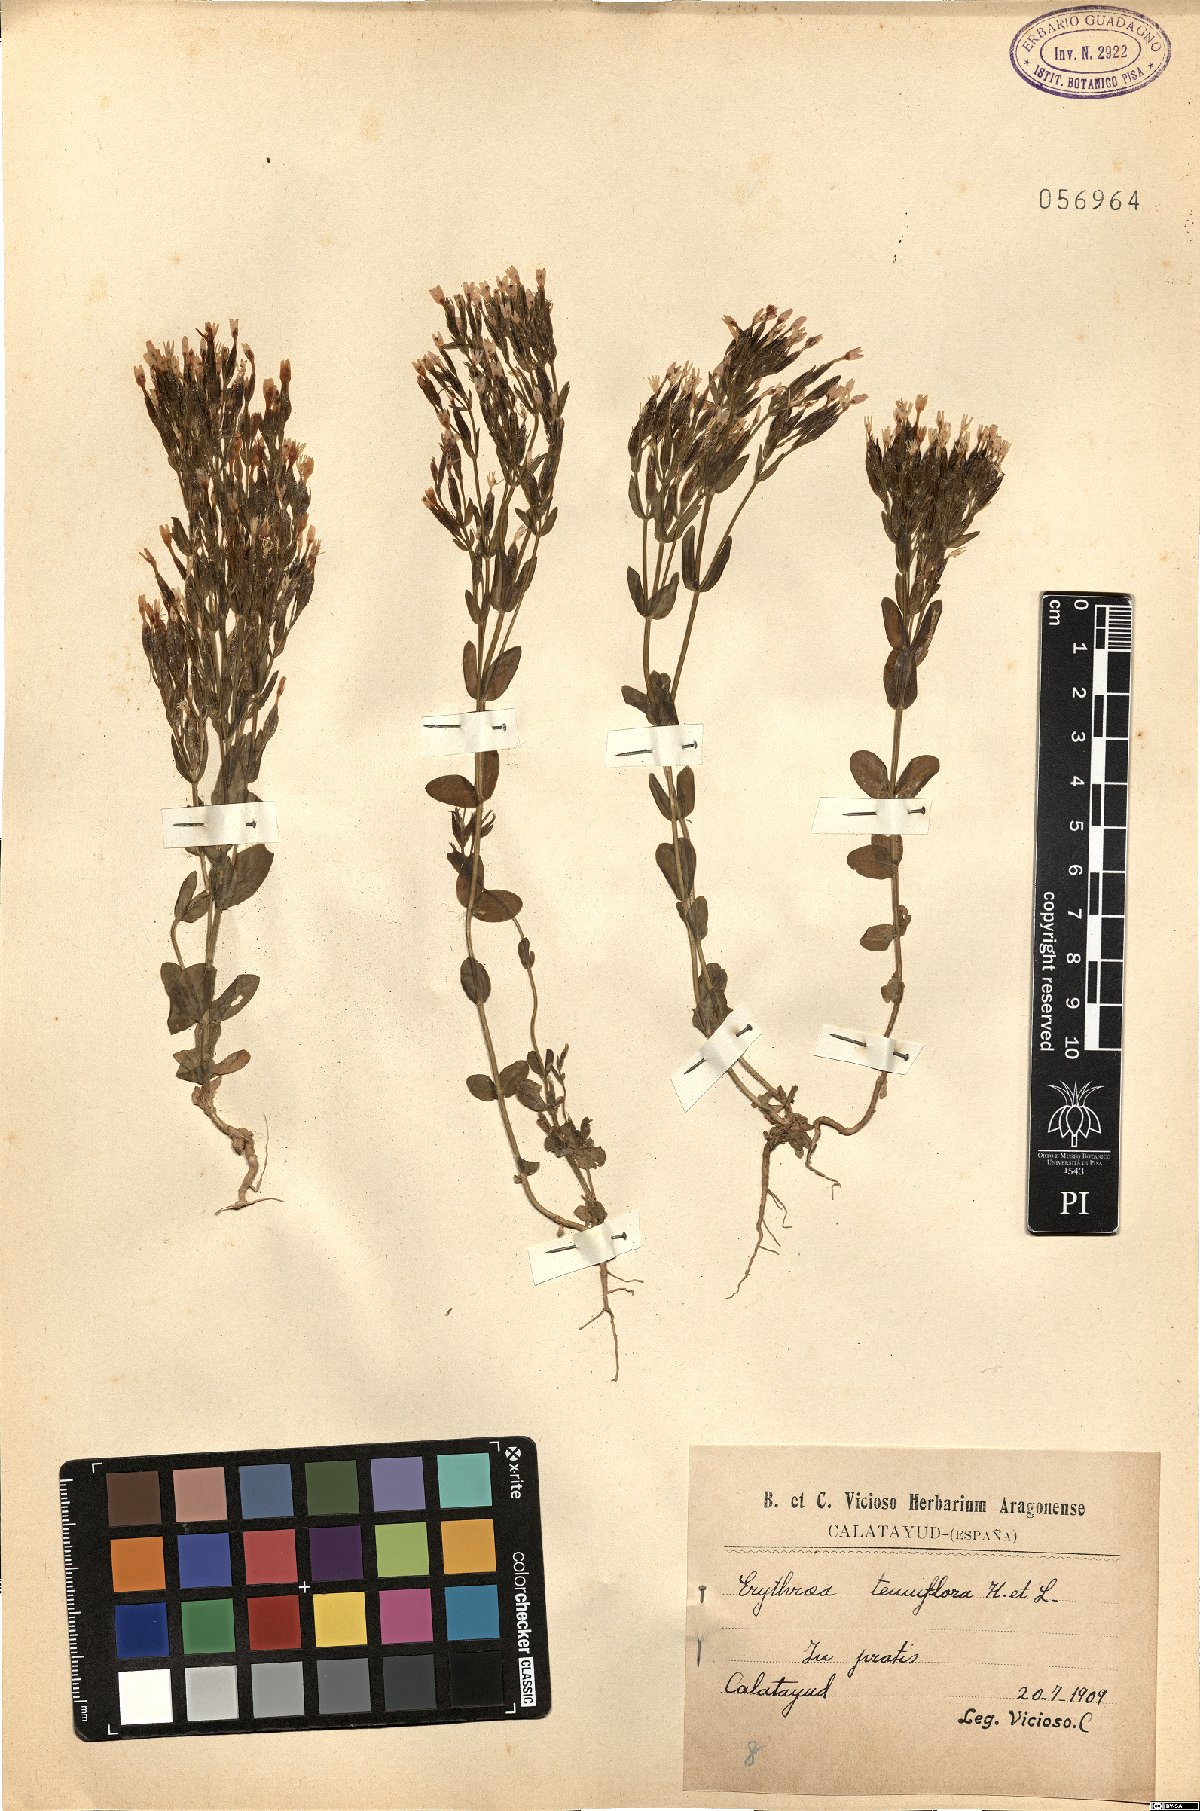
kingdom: Plantae
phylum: Tracheophyta
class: Magnoliopsida
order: Gentianales
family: Gentianaceae
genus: Centaurium
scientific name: Centaurium tenuiflorum
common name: Slender centaury
